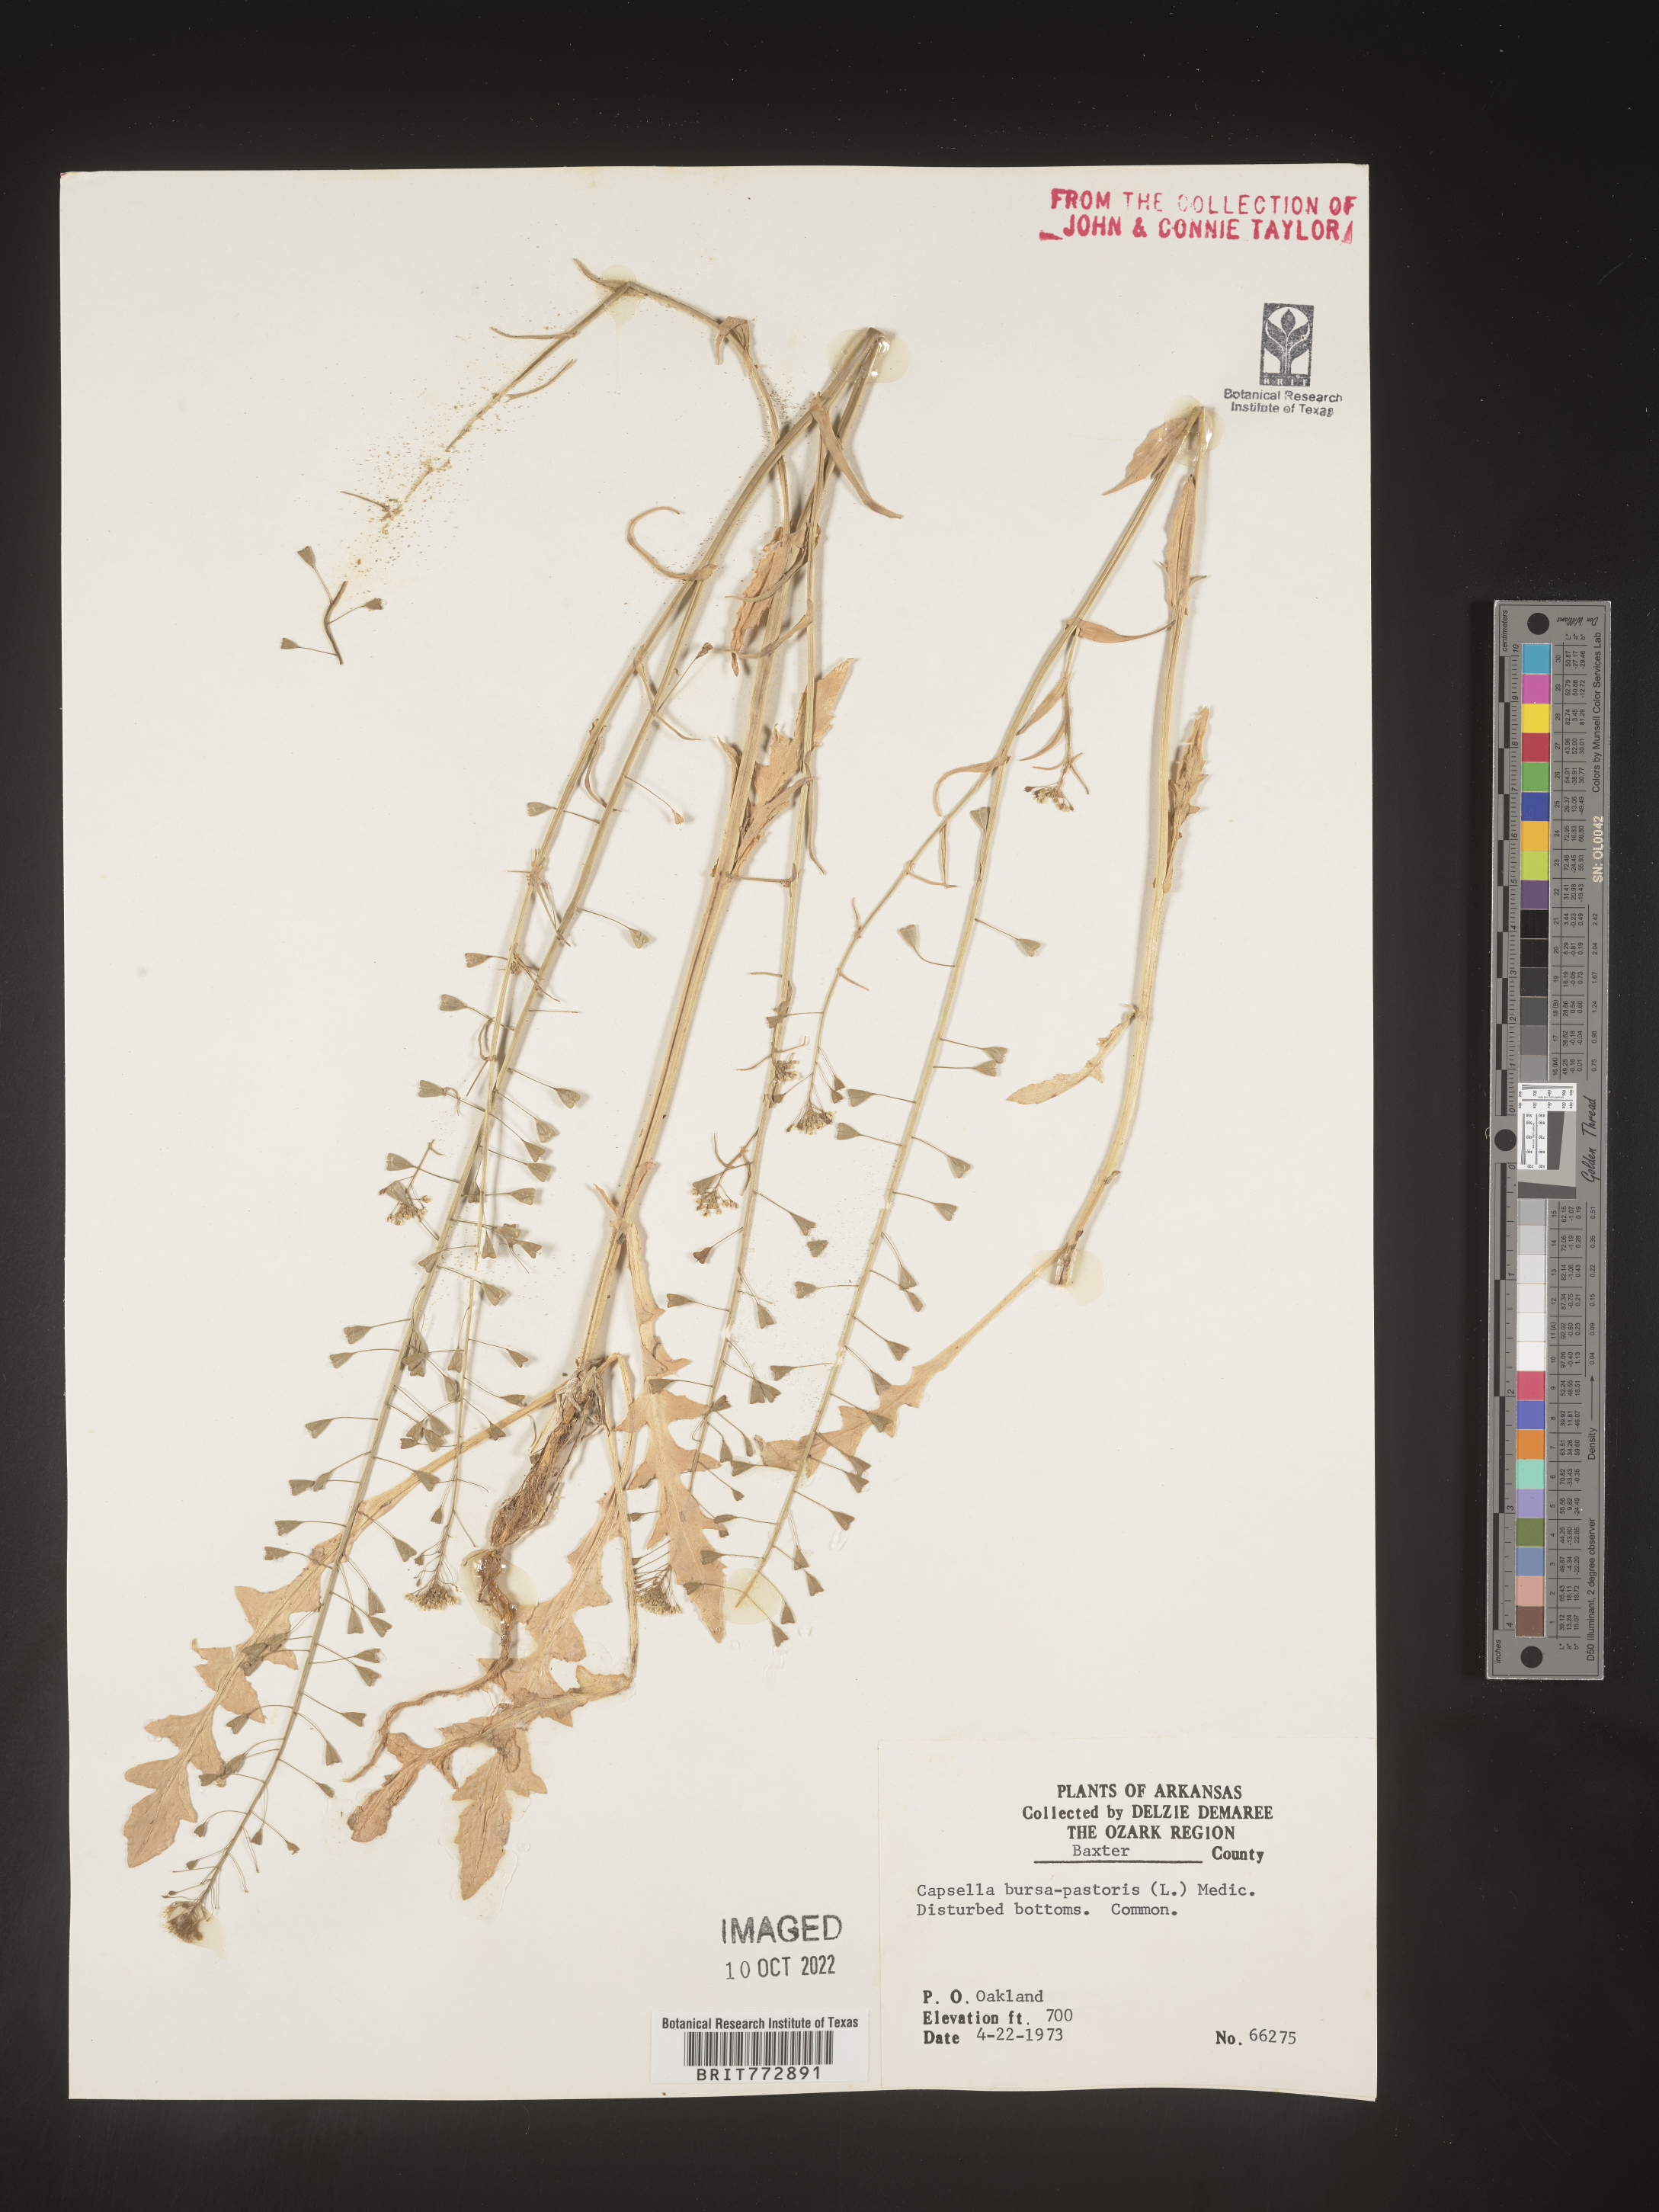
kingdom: Plantae
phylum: Tracheophyta
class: Magnoliopsida
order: Brassicales
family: Brassicaceae
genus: Capsella
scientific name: Capsella bursa-pastoris
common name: Shepherd's purse
